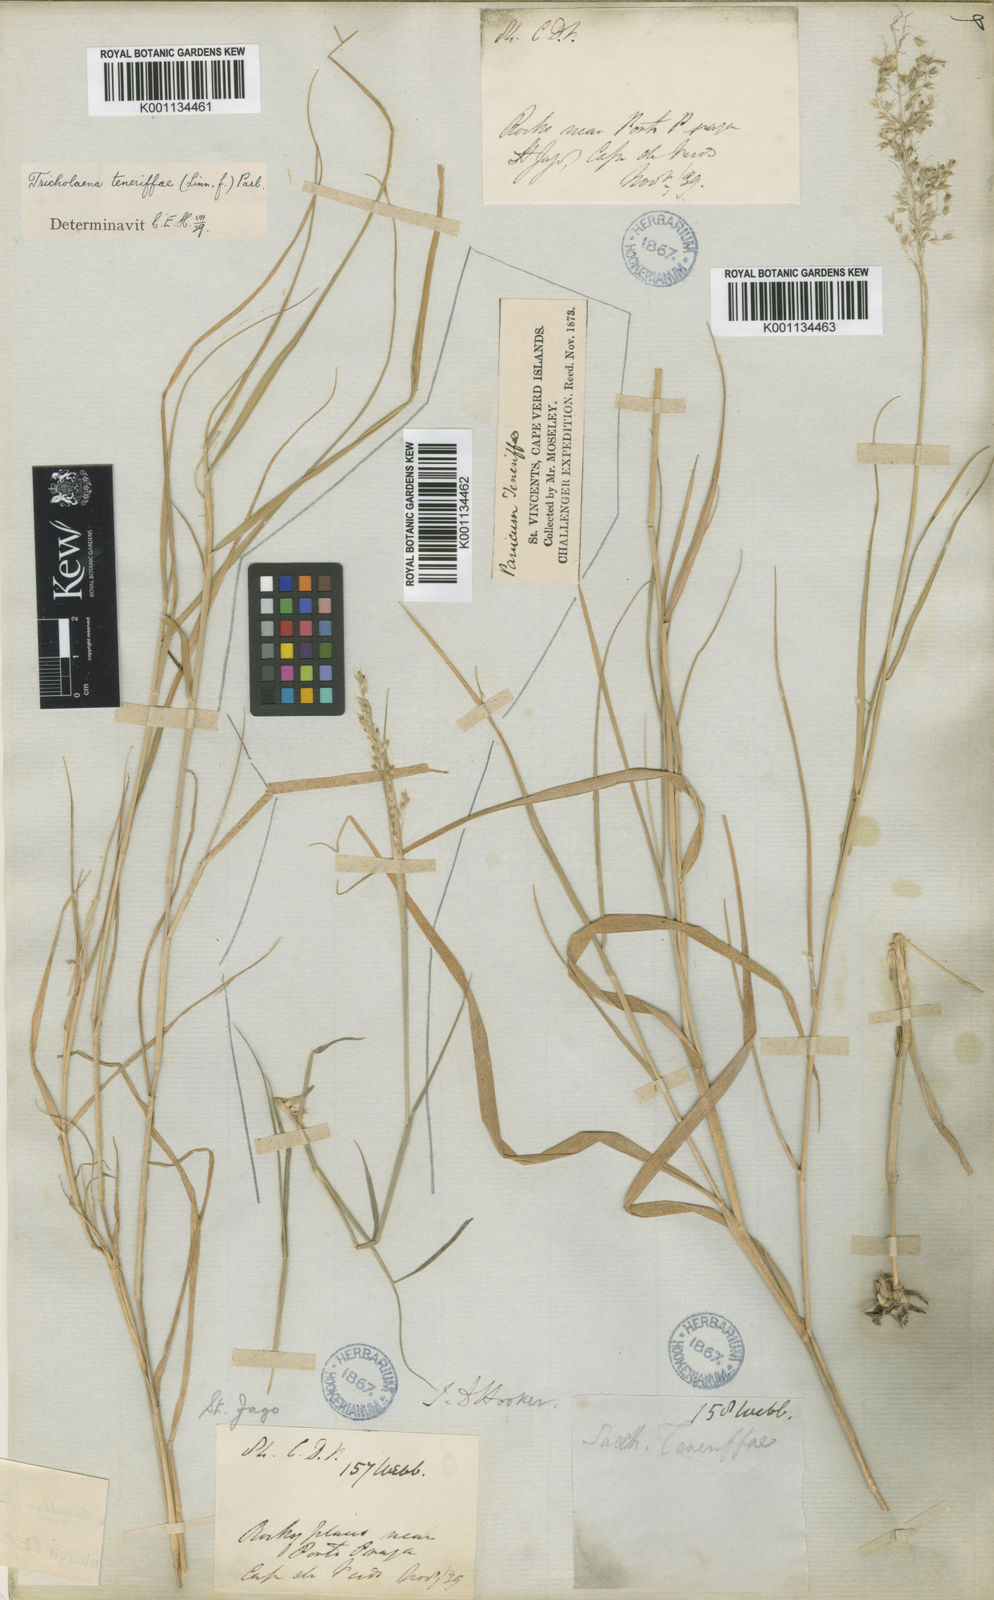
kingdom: Plantae
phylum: Tracheophyta
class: Liliopsida
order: Poales
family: Poaceae
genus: Tricholaena
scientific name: Tricholaena teneriffae
